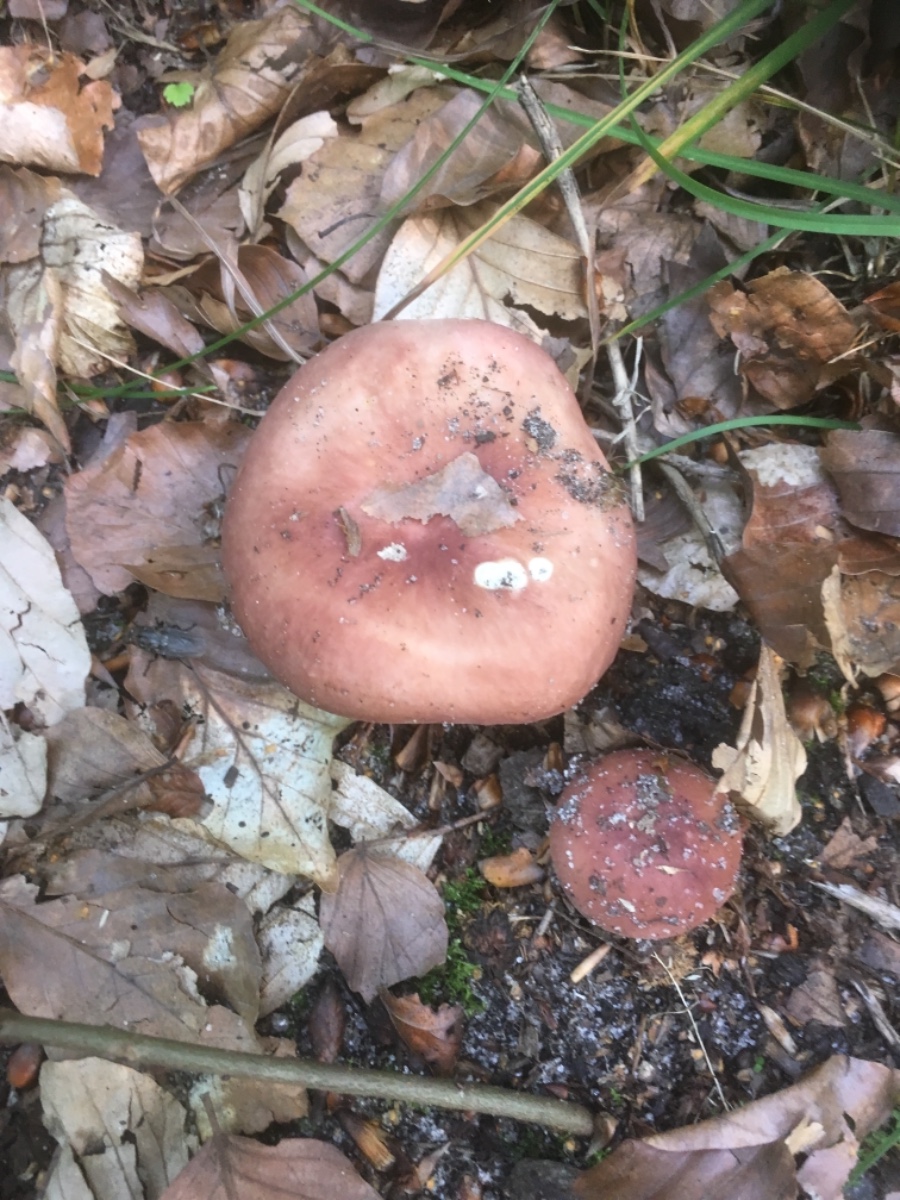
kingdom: Fungi
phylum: Basidiomycota
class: Agaricomycetes
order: Russulales
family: Russulaceae
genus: Russula
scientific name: Russula vesca
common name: spiselig skørhat
